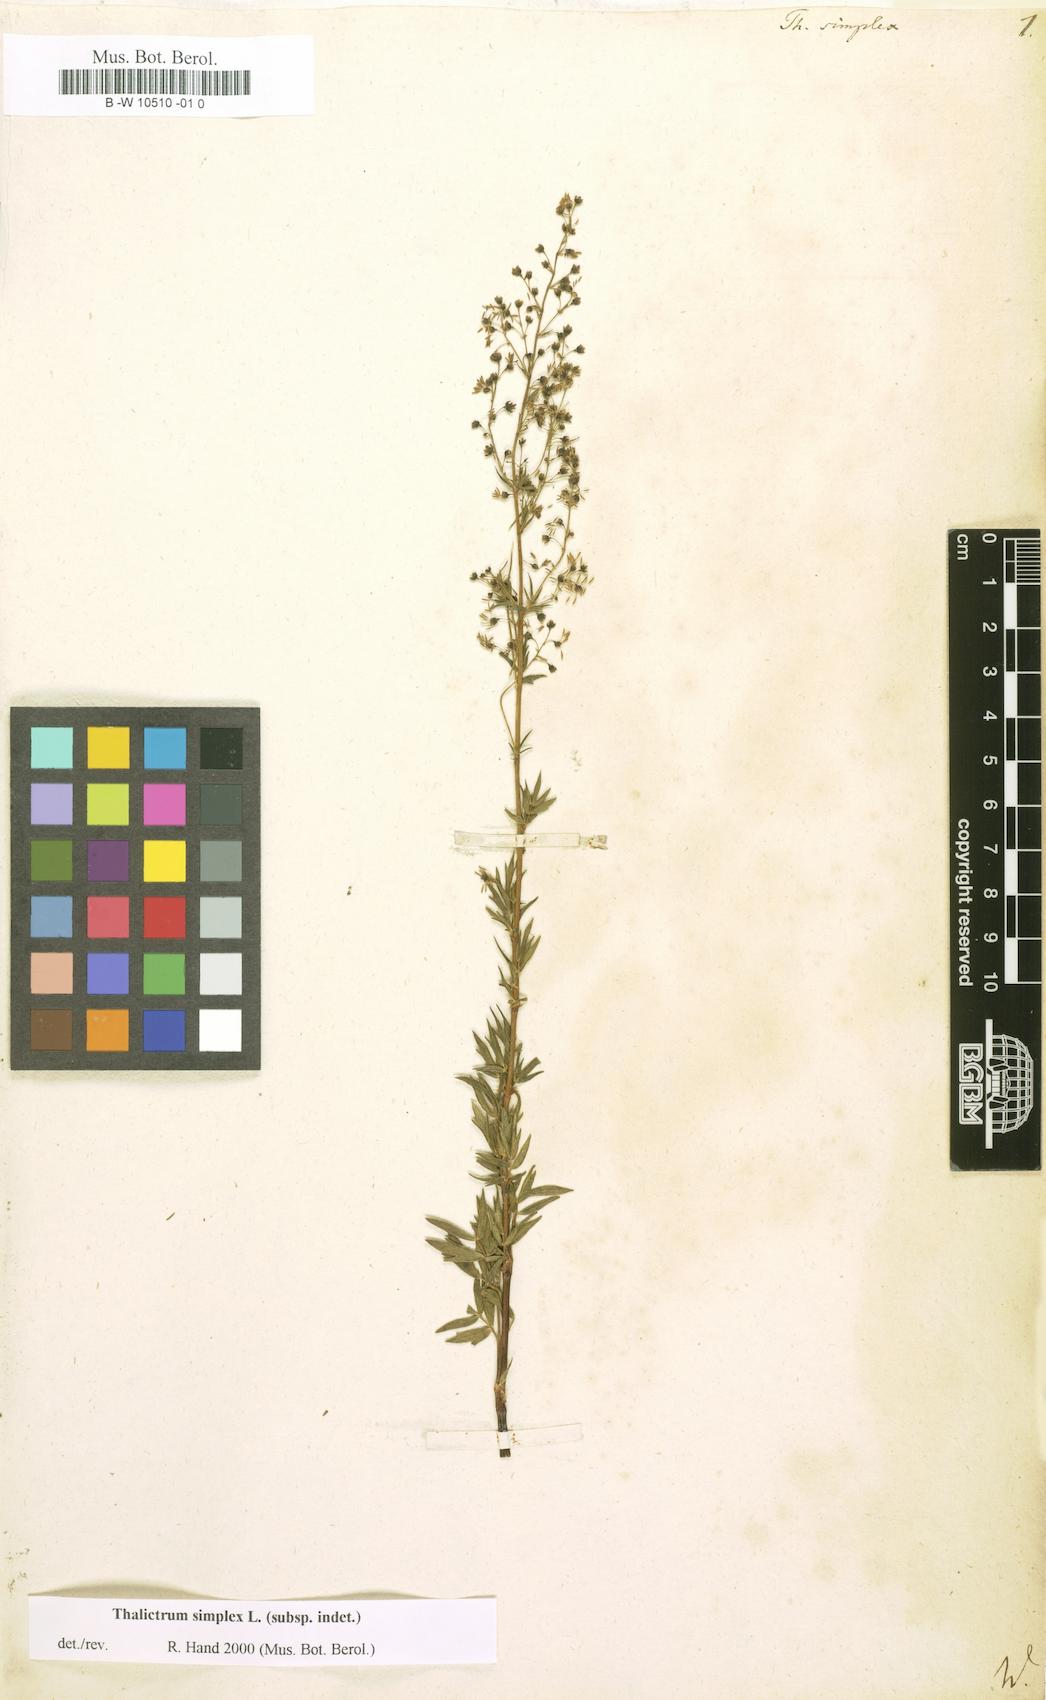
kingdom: Plantae
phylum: Tracheophyta
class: Magnoliopsida
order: Ranunculales
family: Ranunculaceae
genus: Thalictrum
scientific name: Thalictrum simplex
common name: Small meadow-rue
